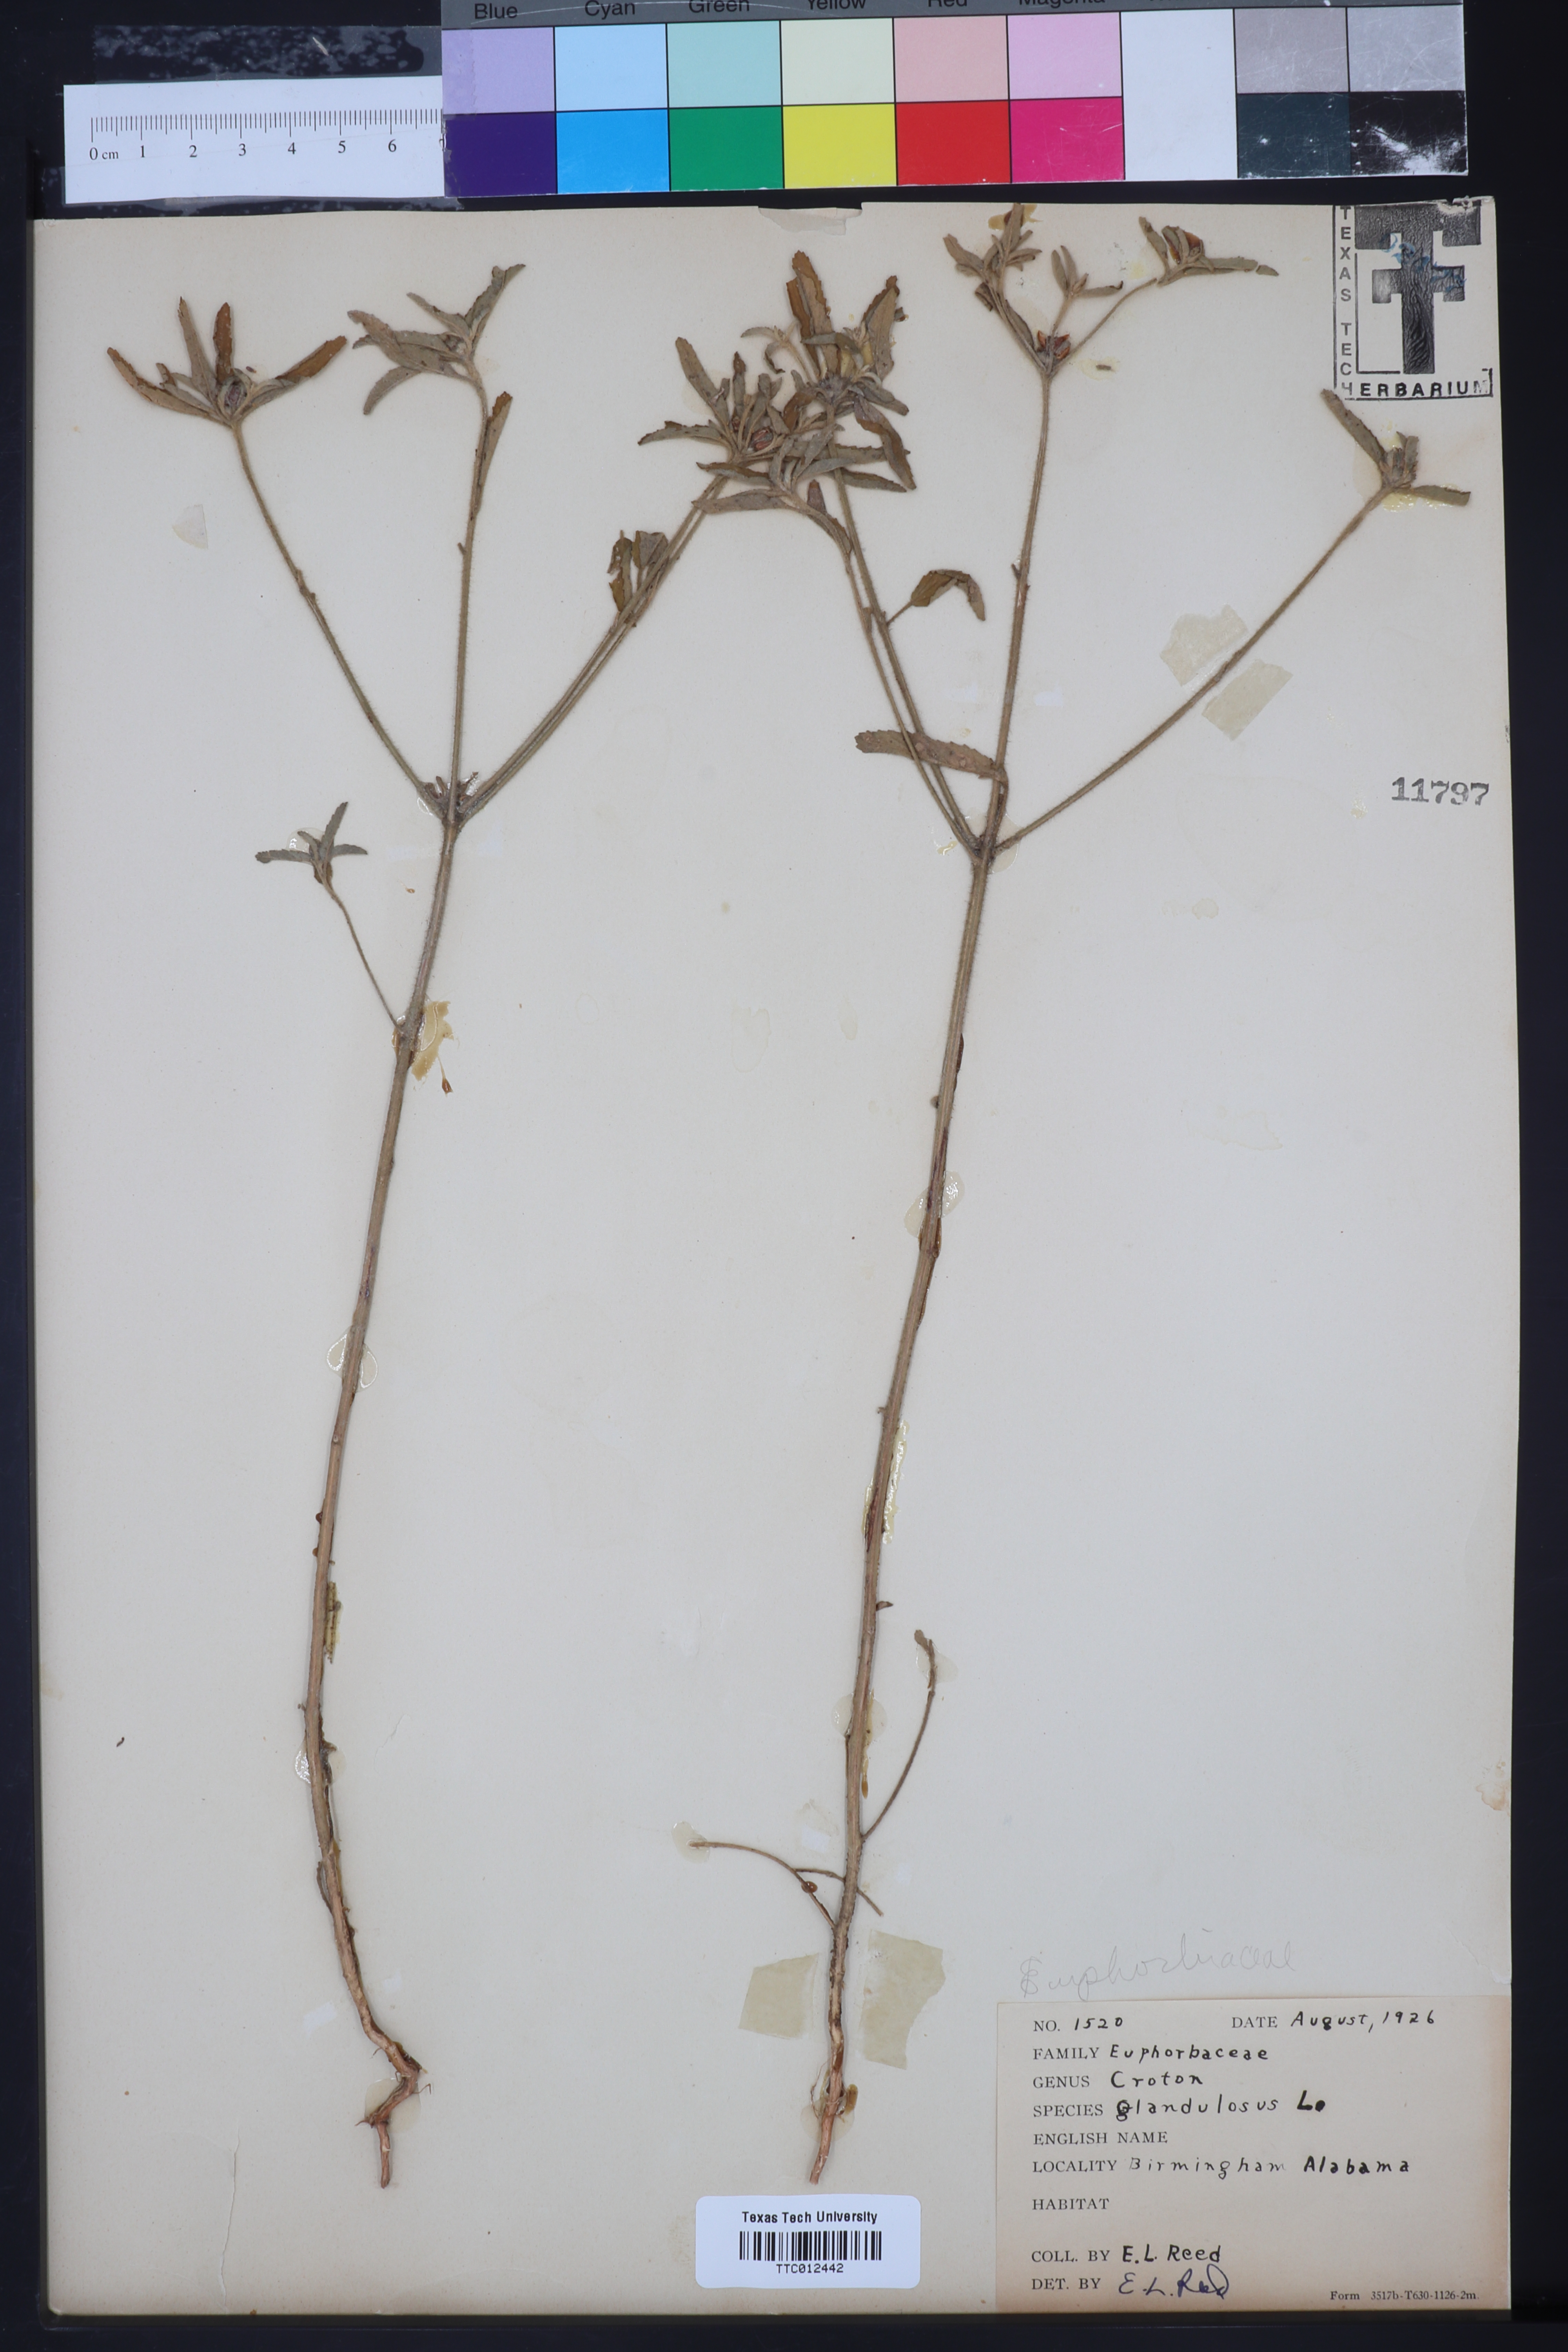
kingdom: Plantae
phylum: Tracheophyta
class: Magnoliopsida
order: Malpighiales
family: Euphorbiaceae
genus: Croton
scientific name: Croton glandulosus
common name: Tropic croton
